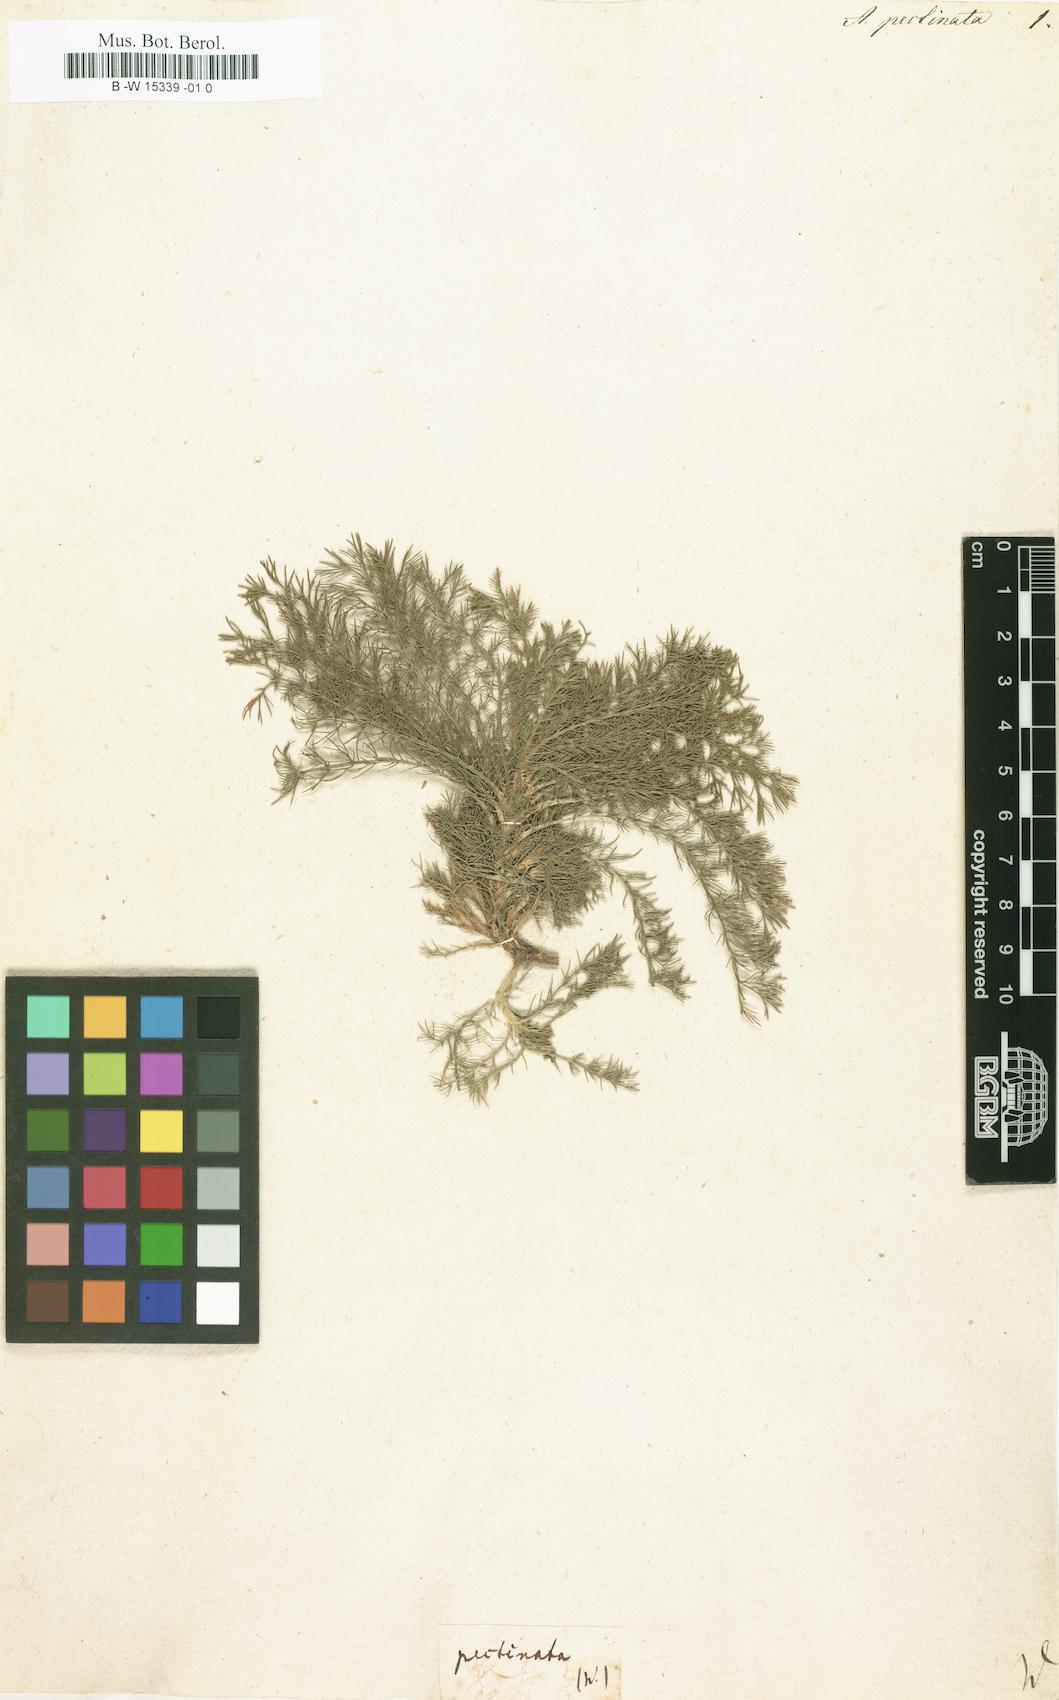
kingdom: Plantae
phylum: Tracheophyta
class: Magnoliopsida
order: Asterales
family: Asteraceae
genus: Neopallasia
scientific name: Neopallasia pectinata
